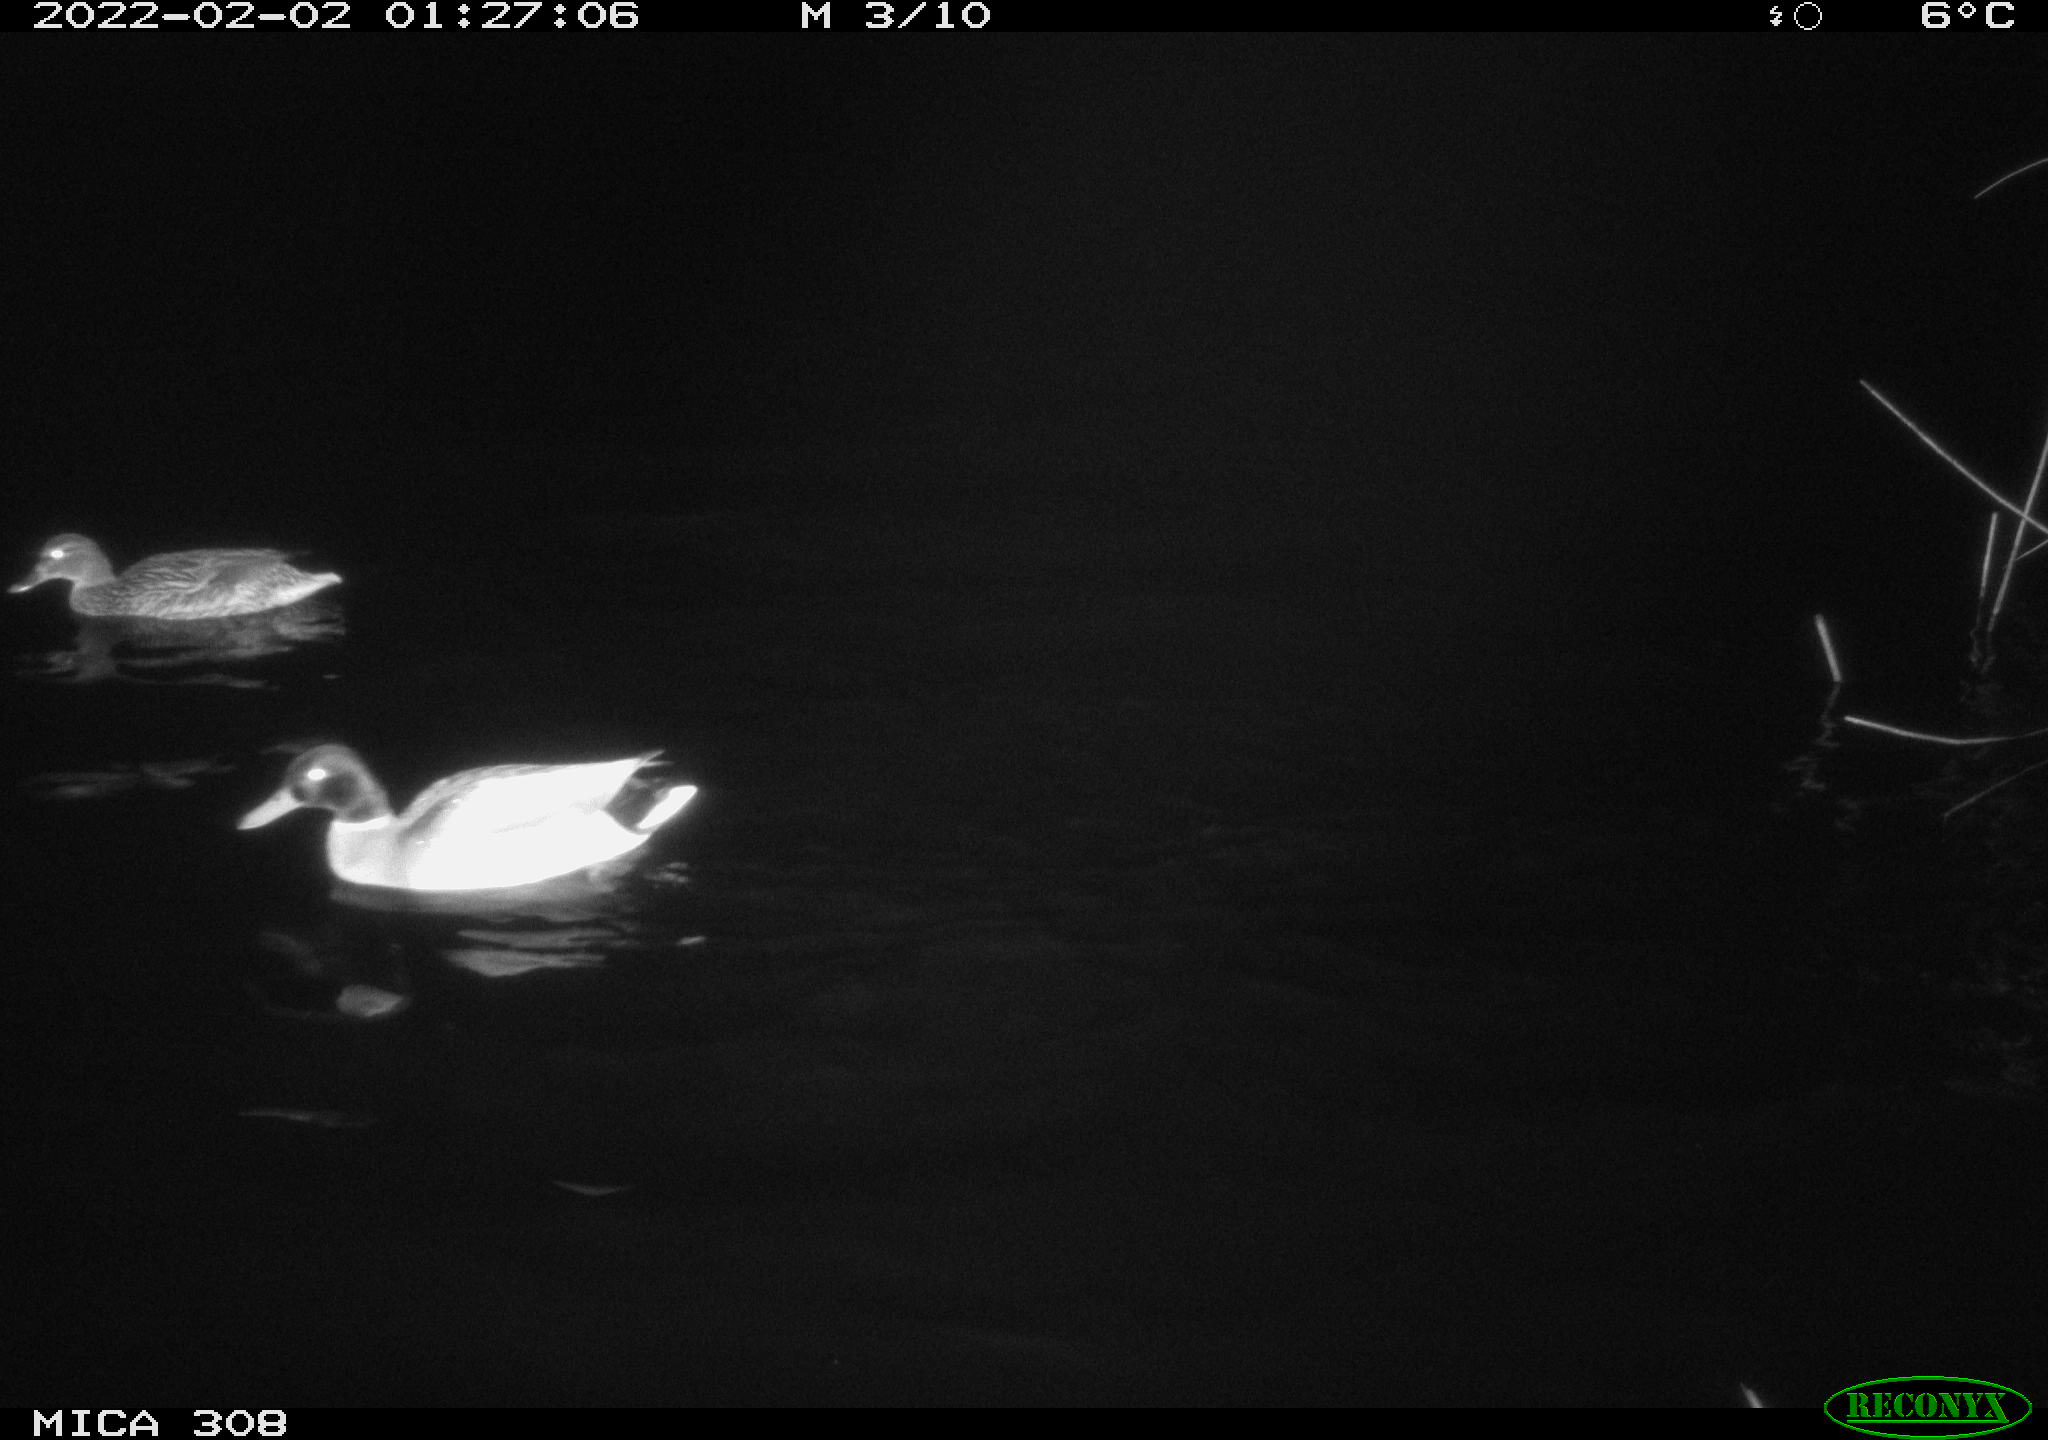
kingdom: Animalia
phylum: Chordata
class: Aves
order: Anseriformes
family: Anatidae
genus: Anas
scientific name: Anas
